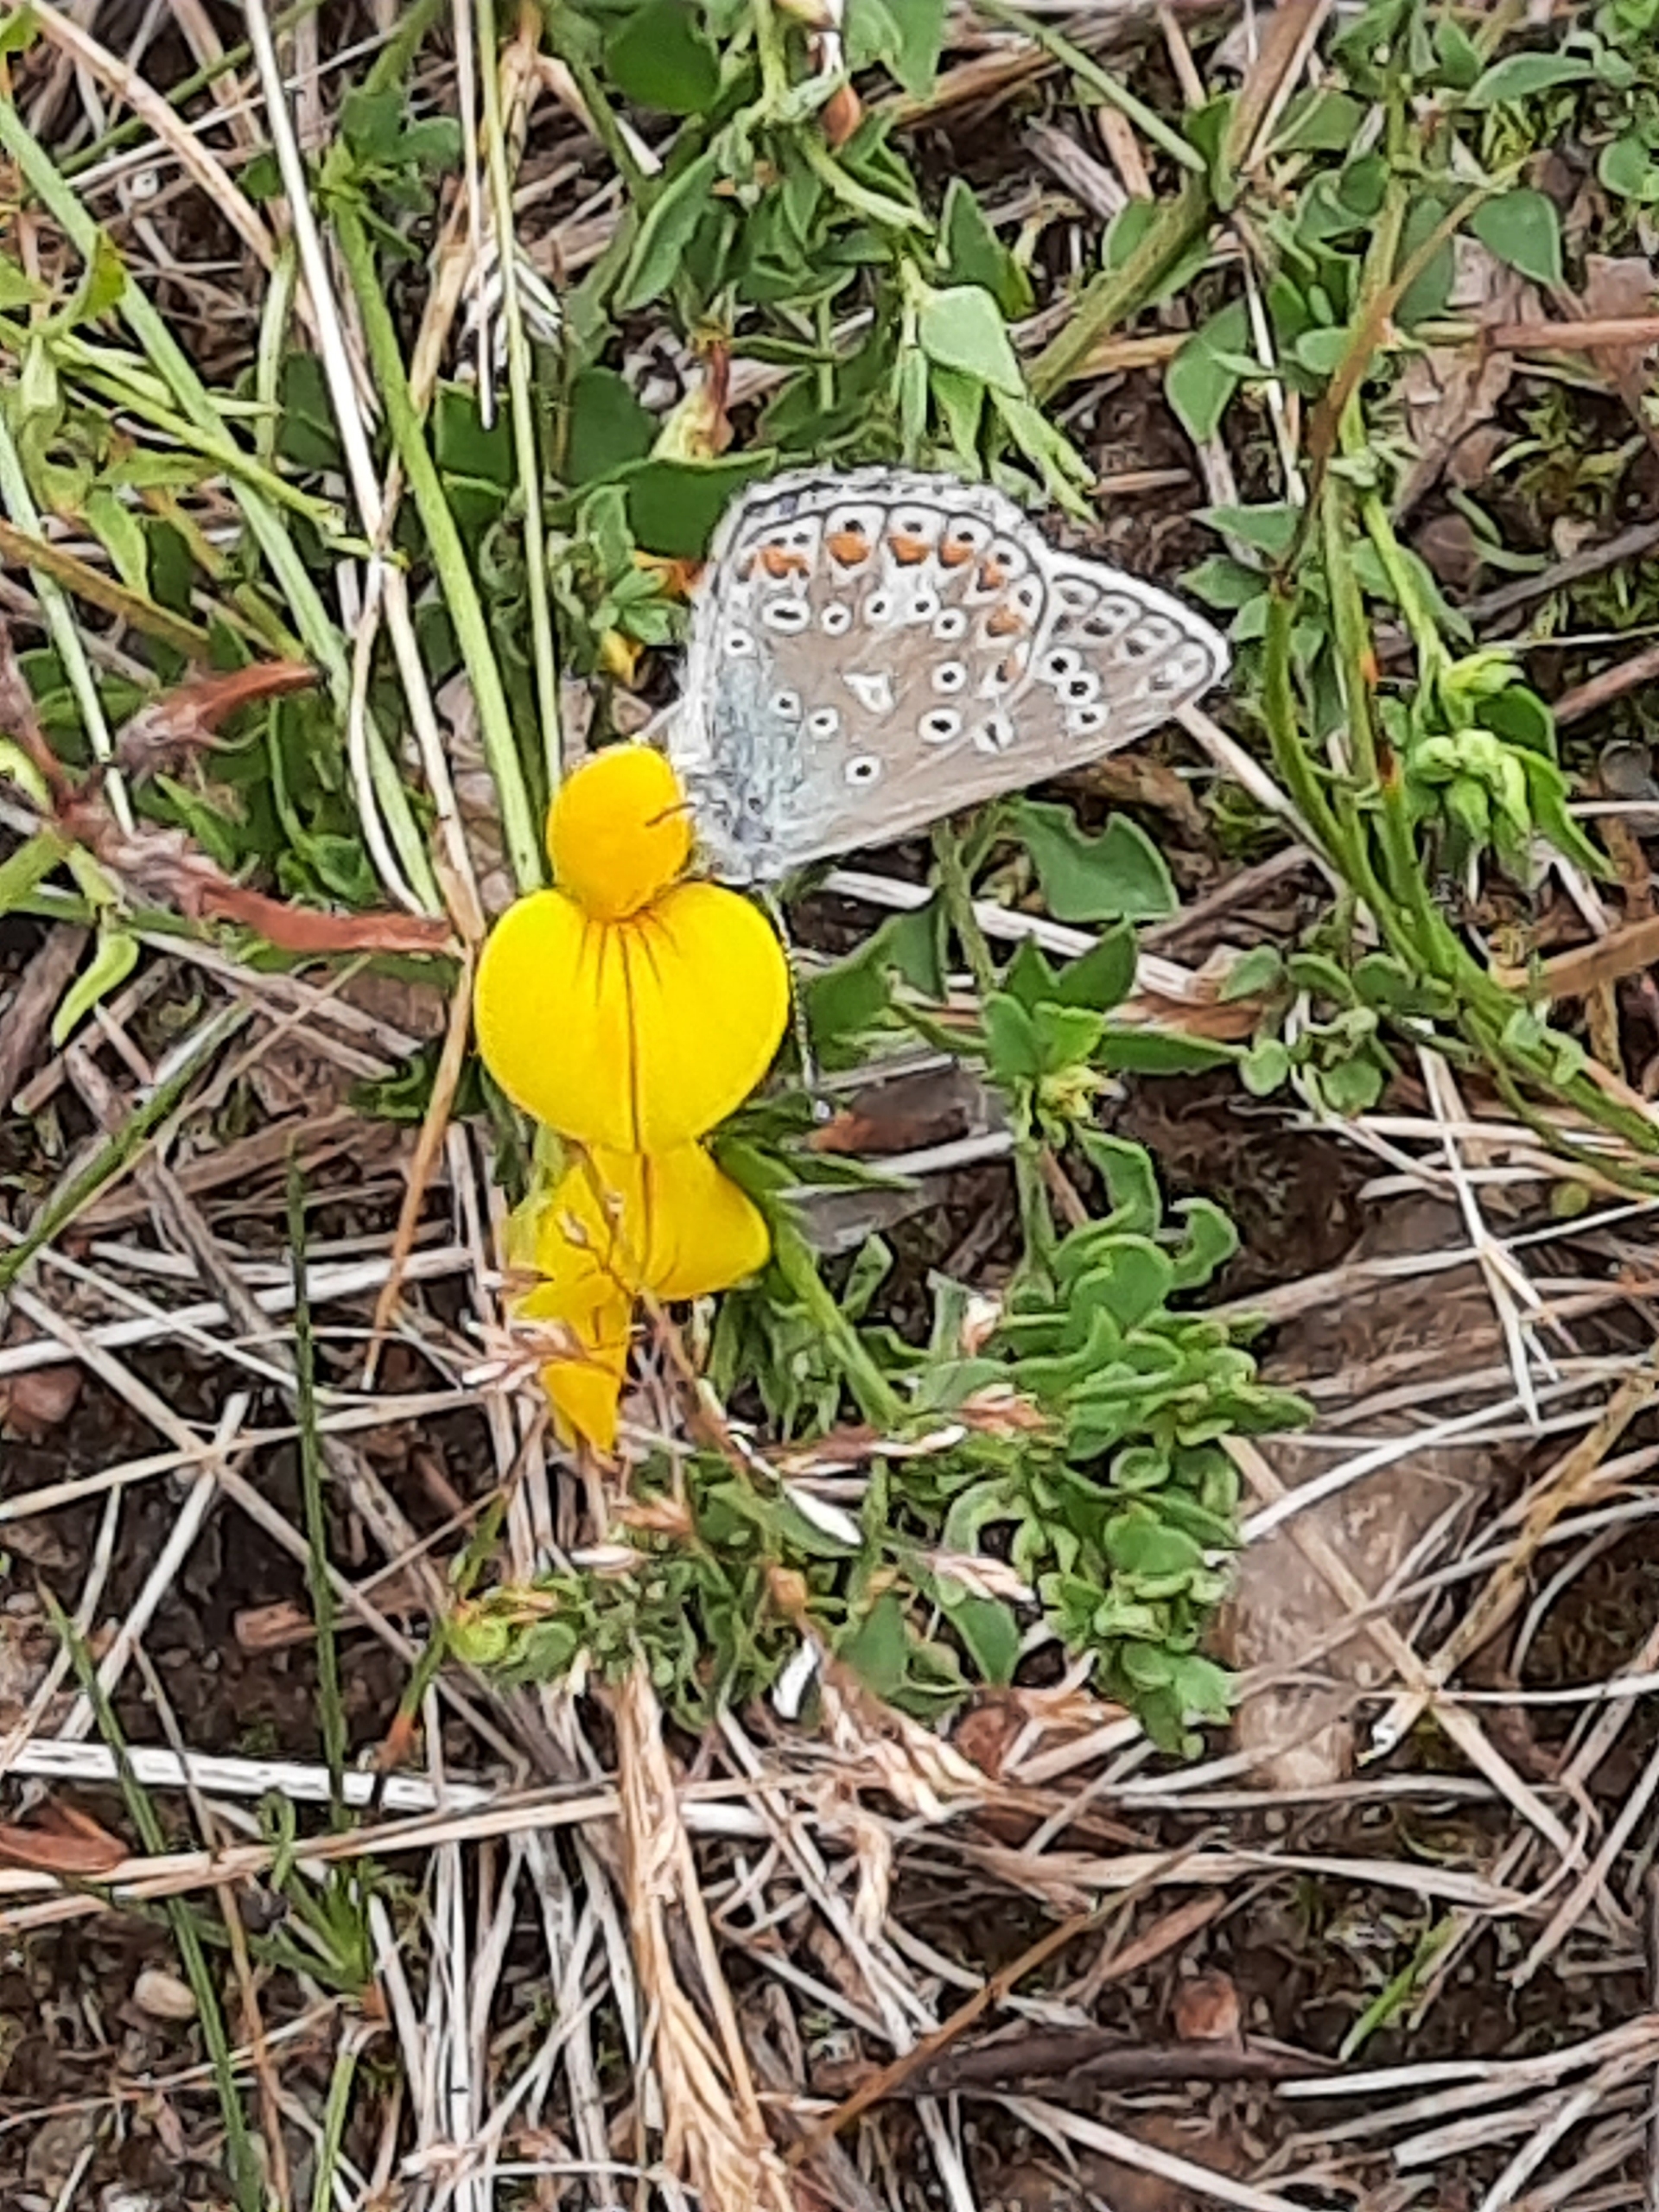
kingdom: Animalia
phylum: Arthropoda
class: Insecta
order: Lepidoptera
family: Lycaenidae
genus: Polyommatus
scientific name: Polyommatus icarus
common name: Almindelig blåfugl
